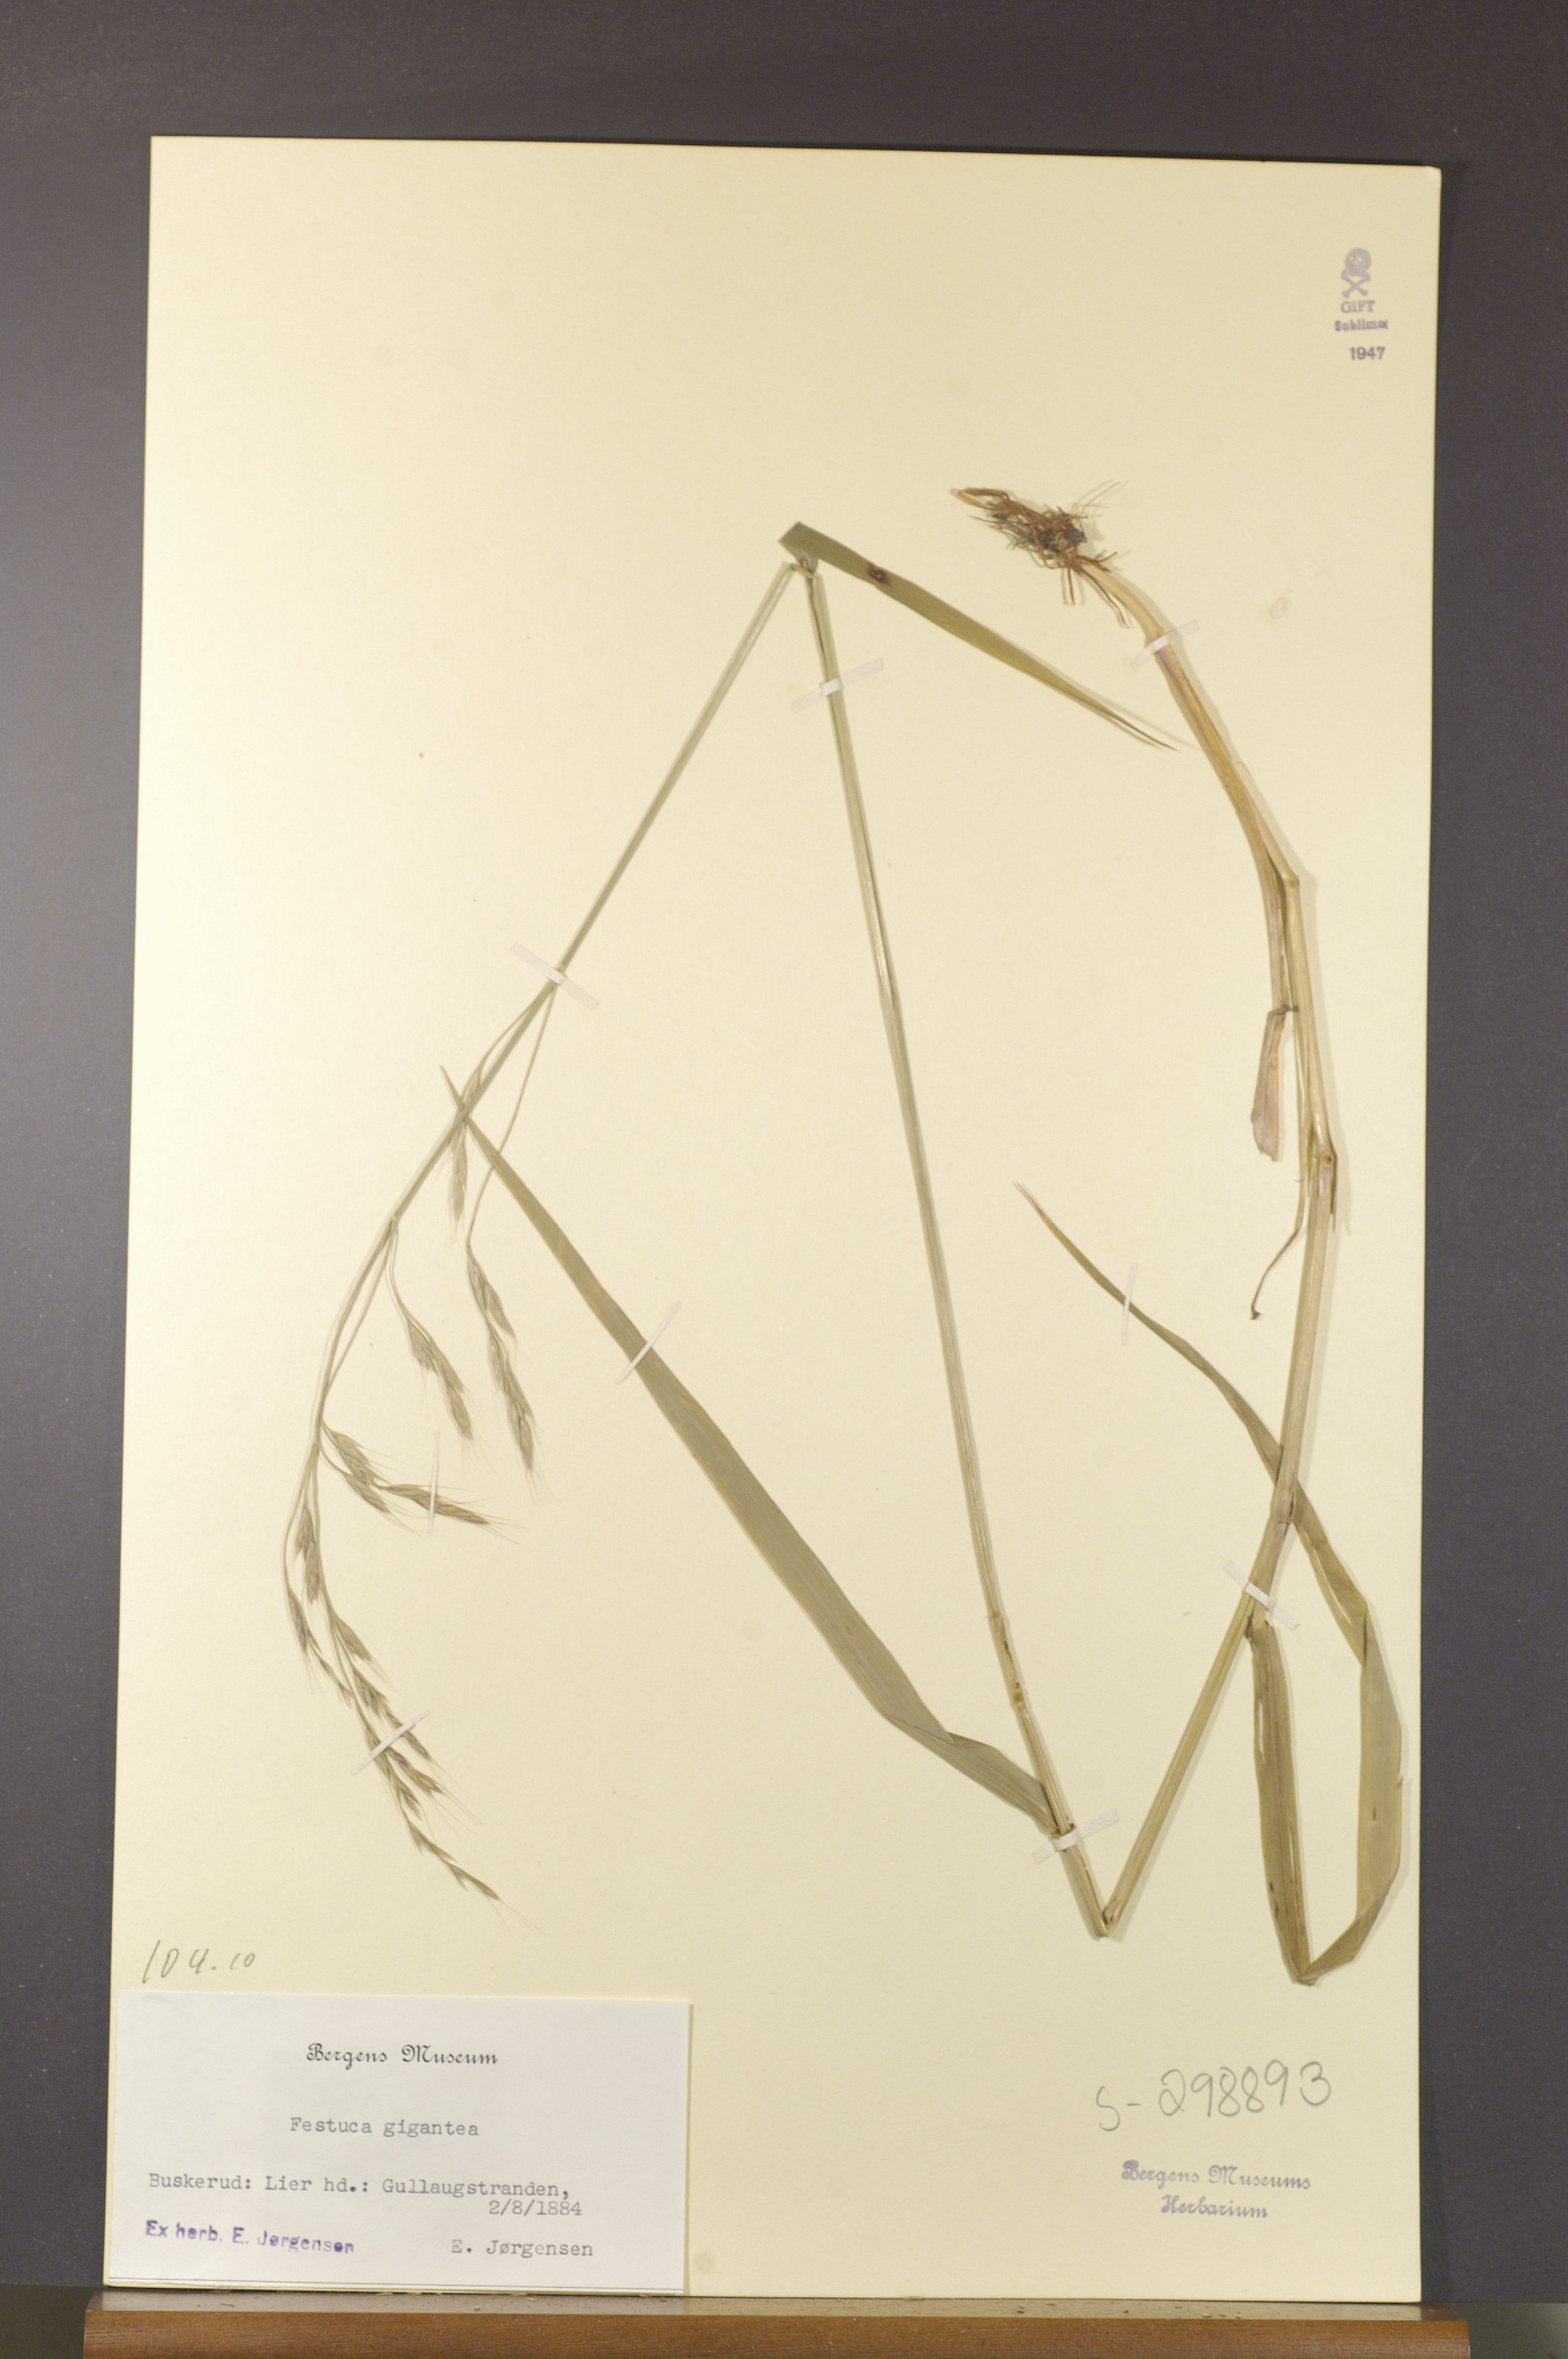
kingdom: Plantae
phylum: Tracheophyta
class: Liliopsida
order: Poales
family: Poaceae
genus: Lolium
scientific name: Lolium giganteum
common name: Giant fescue
